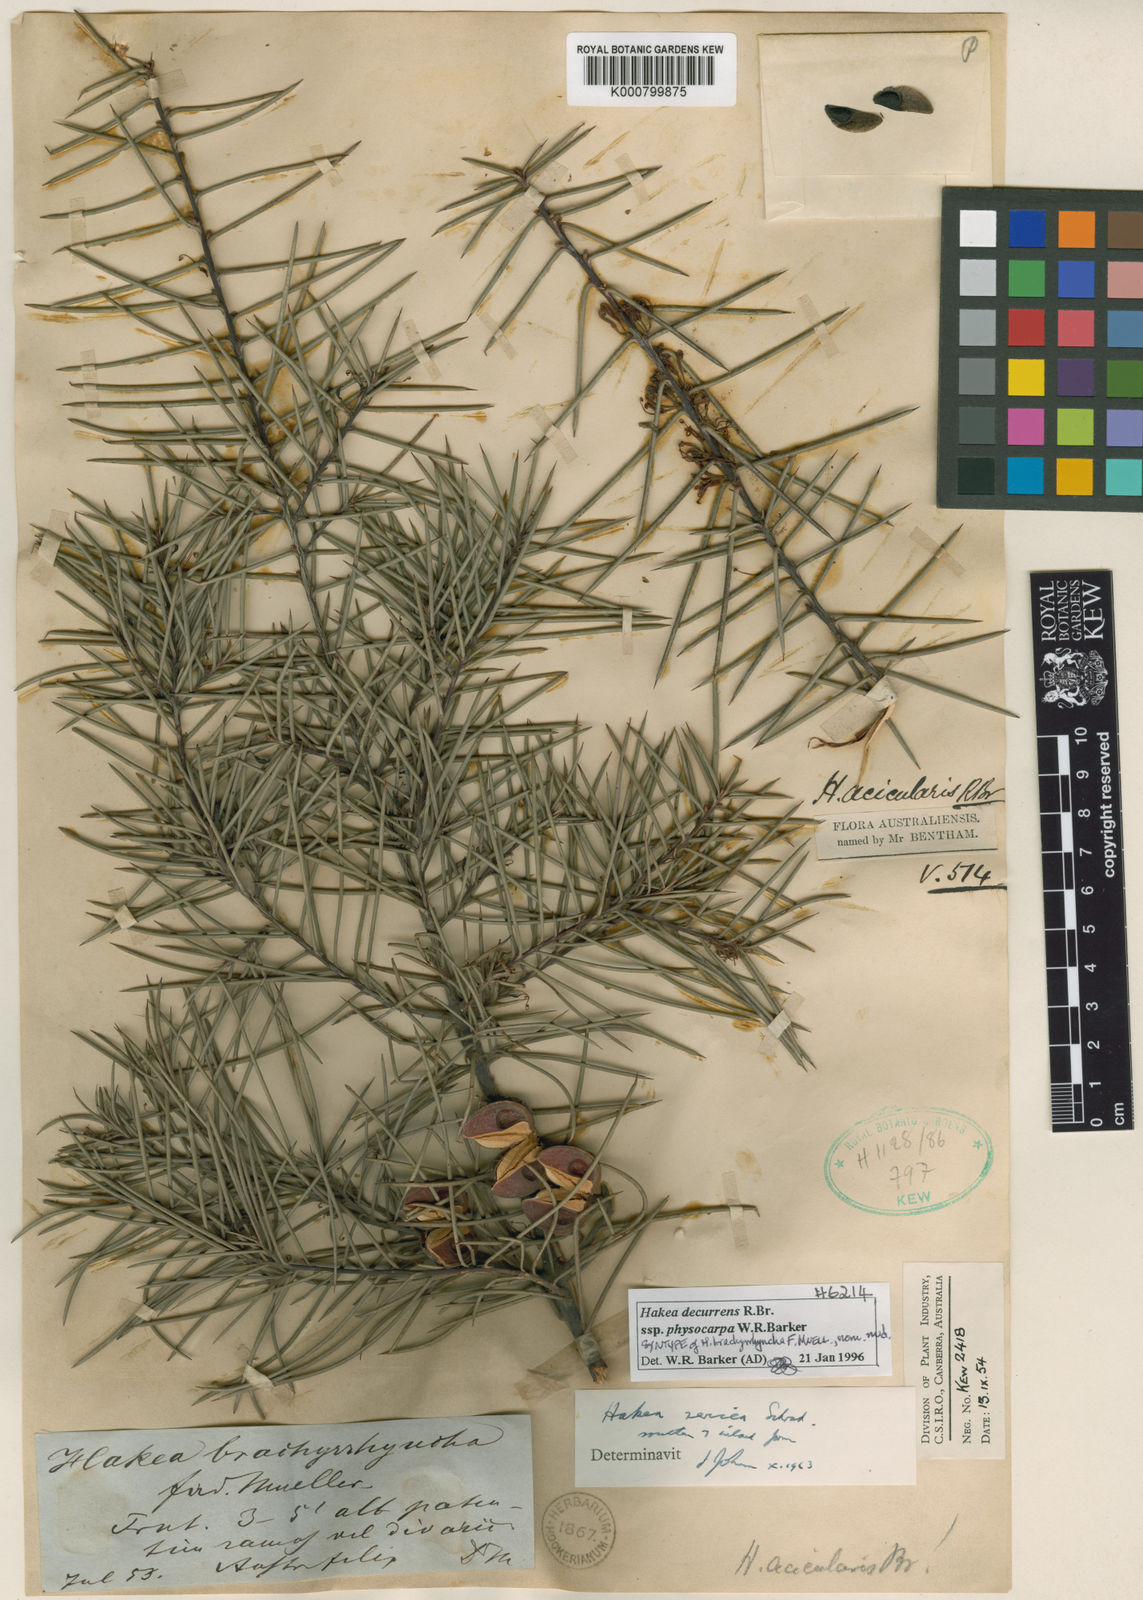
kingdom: Plantae
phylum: Tracheophyta
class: Magnoliopsida
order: Proteales
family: Proteaceae
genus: Hakea
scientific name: Hakea sericea
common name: Needle bush
